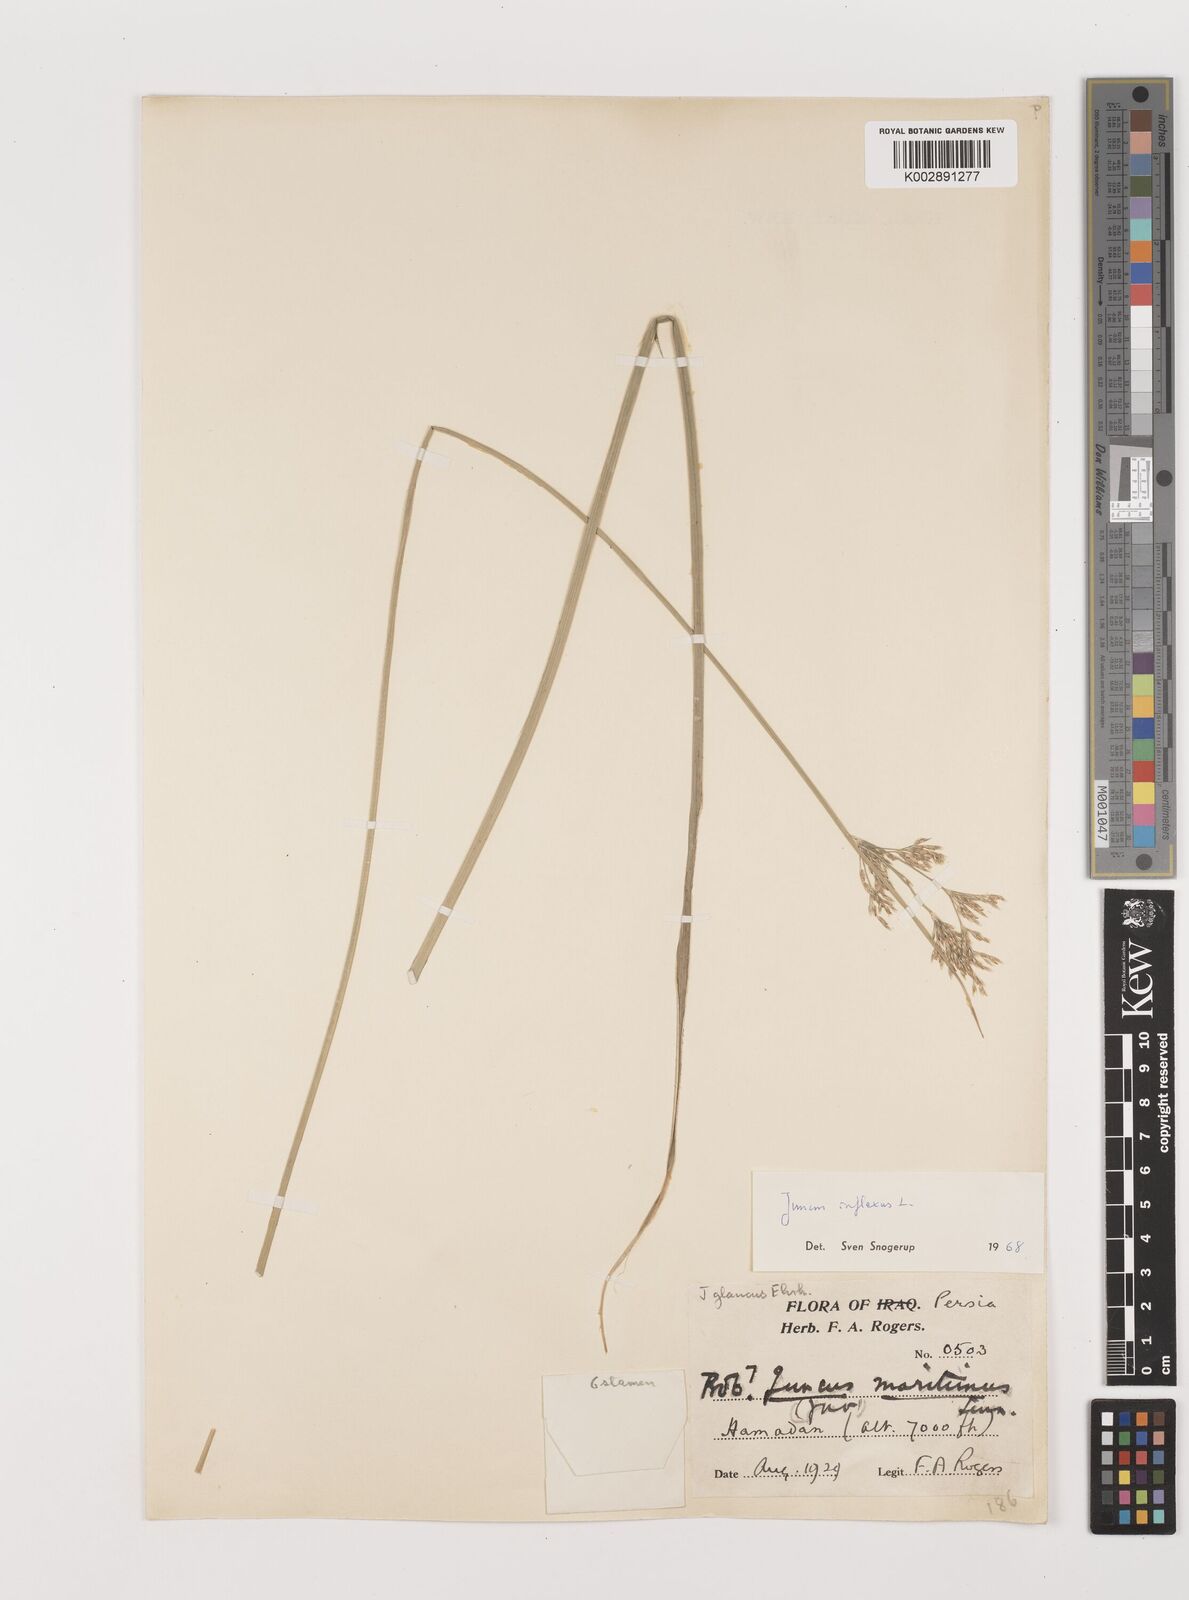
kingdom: Plantae
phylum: Tracheophyta
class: Liliopsida
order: Poales
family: Juncaceae
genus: Juncus
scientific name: Juncus inflexus
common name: Hard rush
